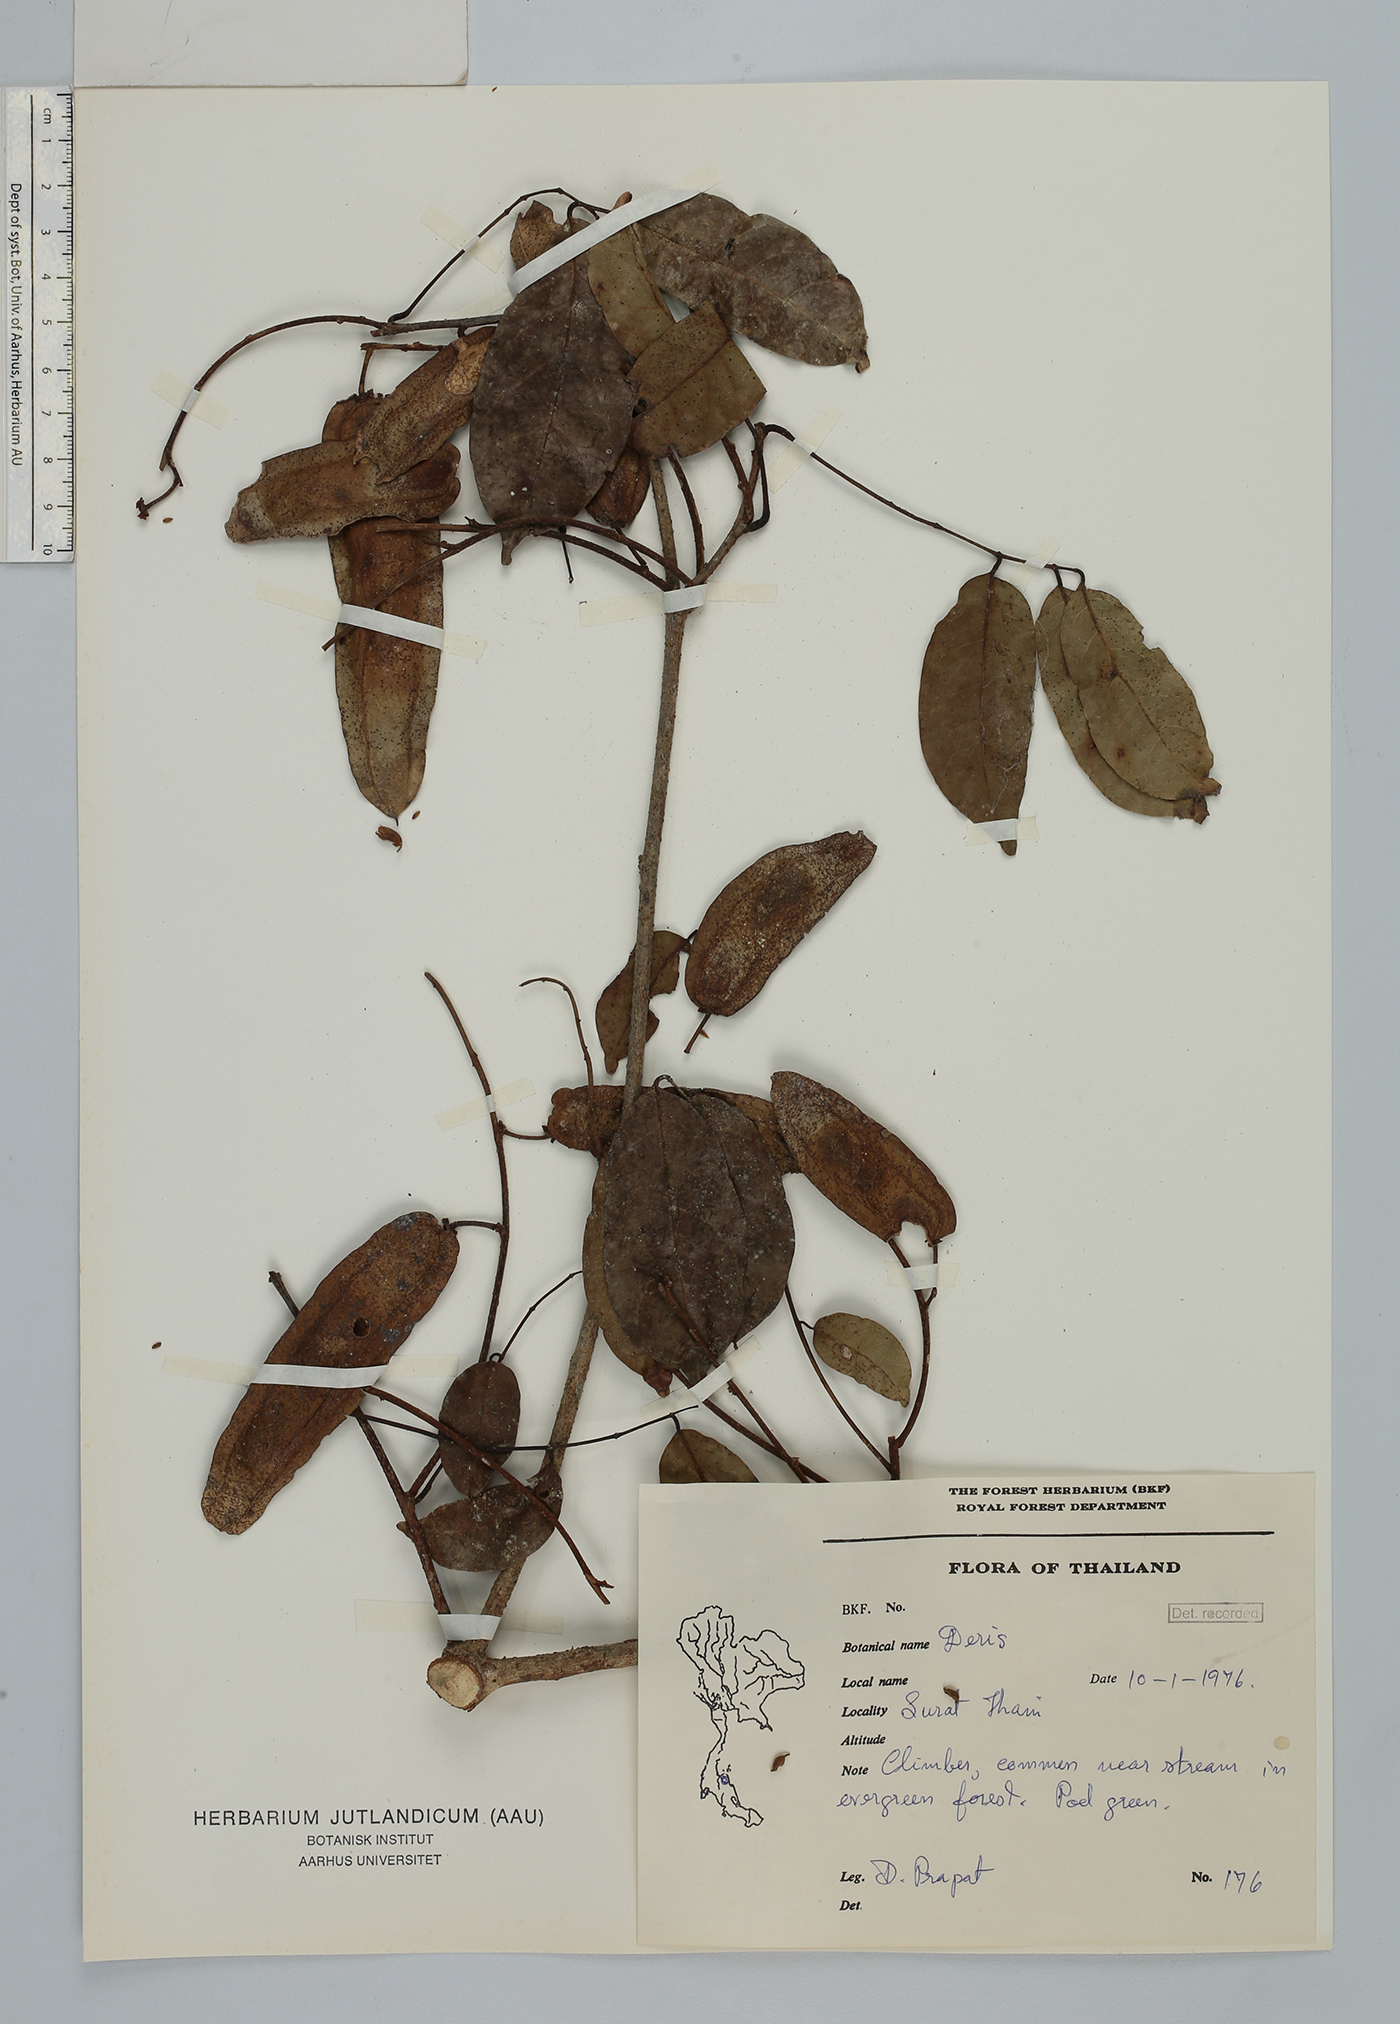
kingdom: Plantae
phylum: Tracheophyta
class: Magnoliopsida
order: Fabales
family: Fabaceae
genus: Derris
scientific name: Derris
